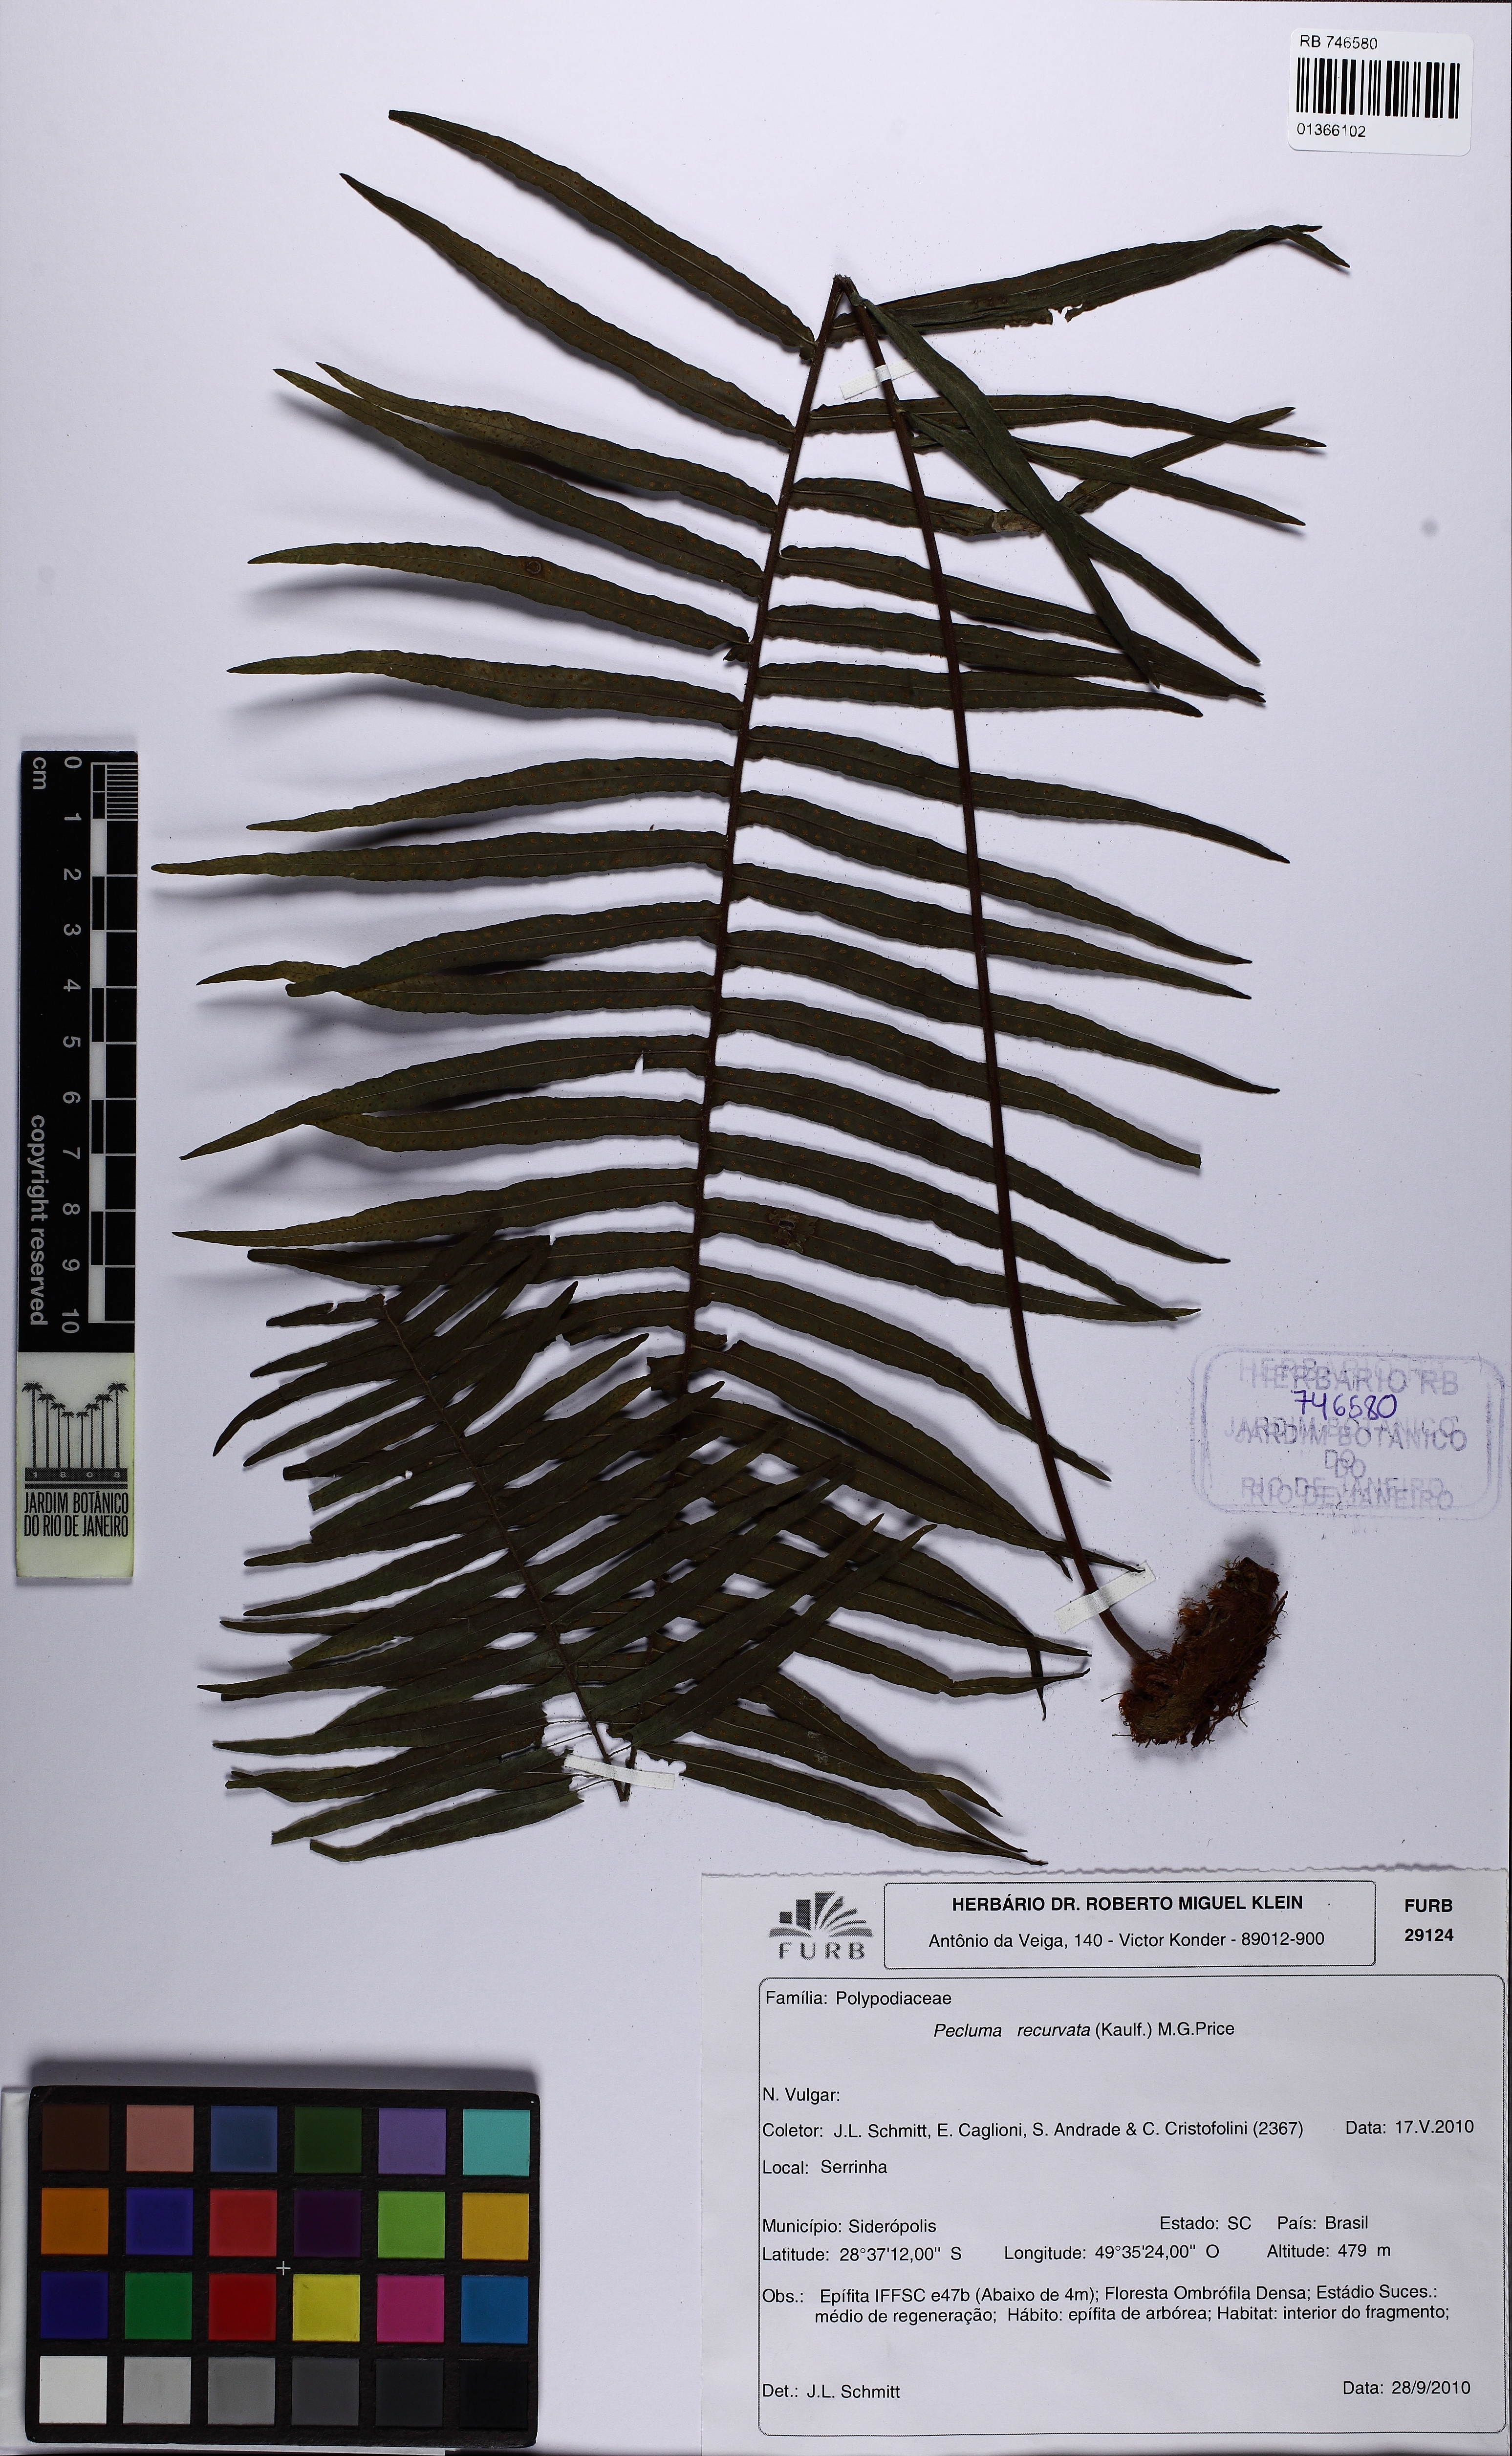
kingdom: Plantae
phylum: Tracheophyta
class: Polypodiopsida
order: Polypodiales
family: Polypodiaceae
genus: Pecluma
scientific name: Pecluma recurvata
